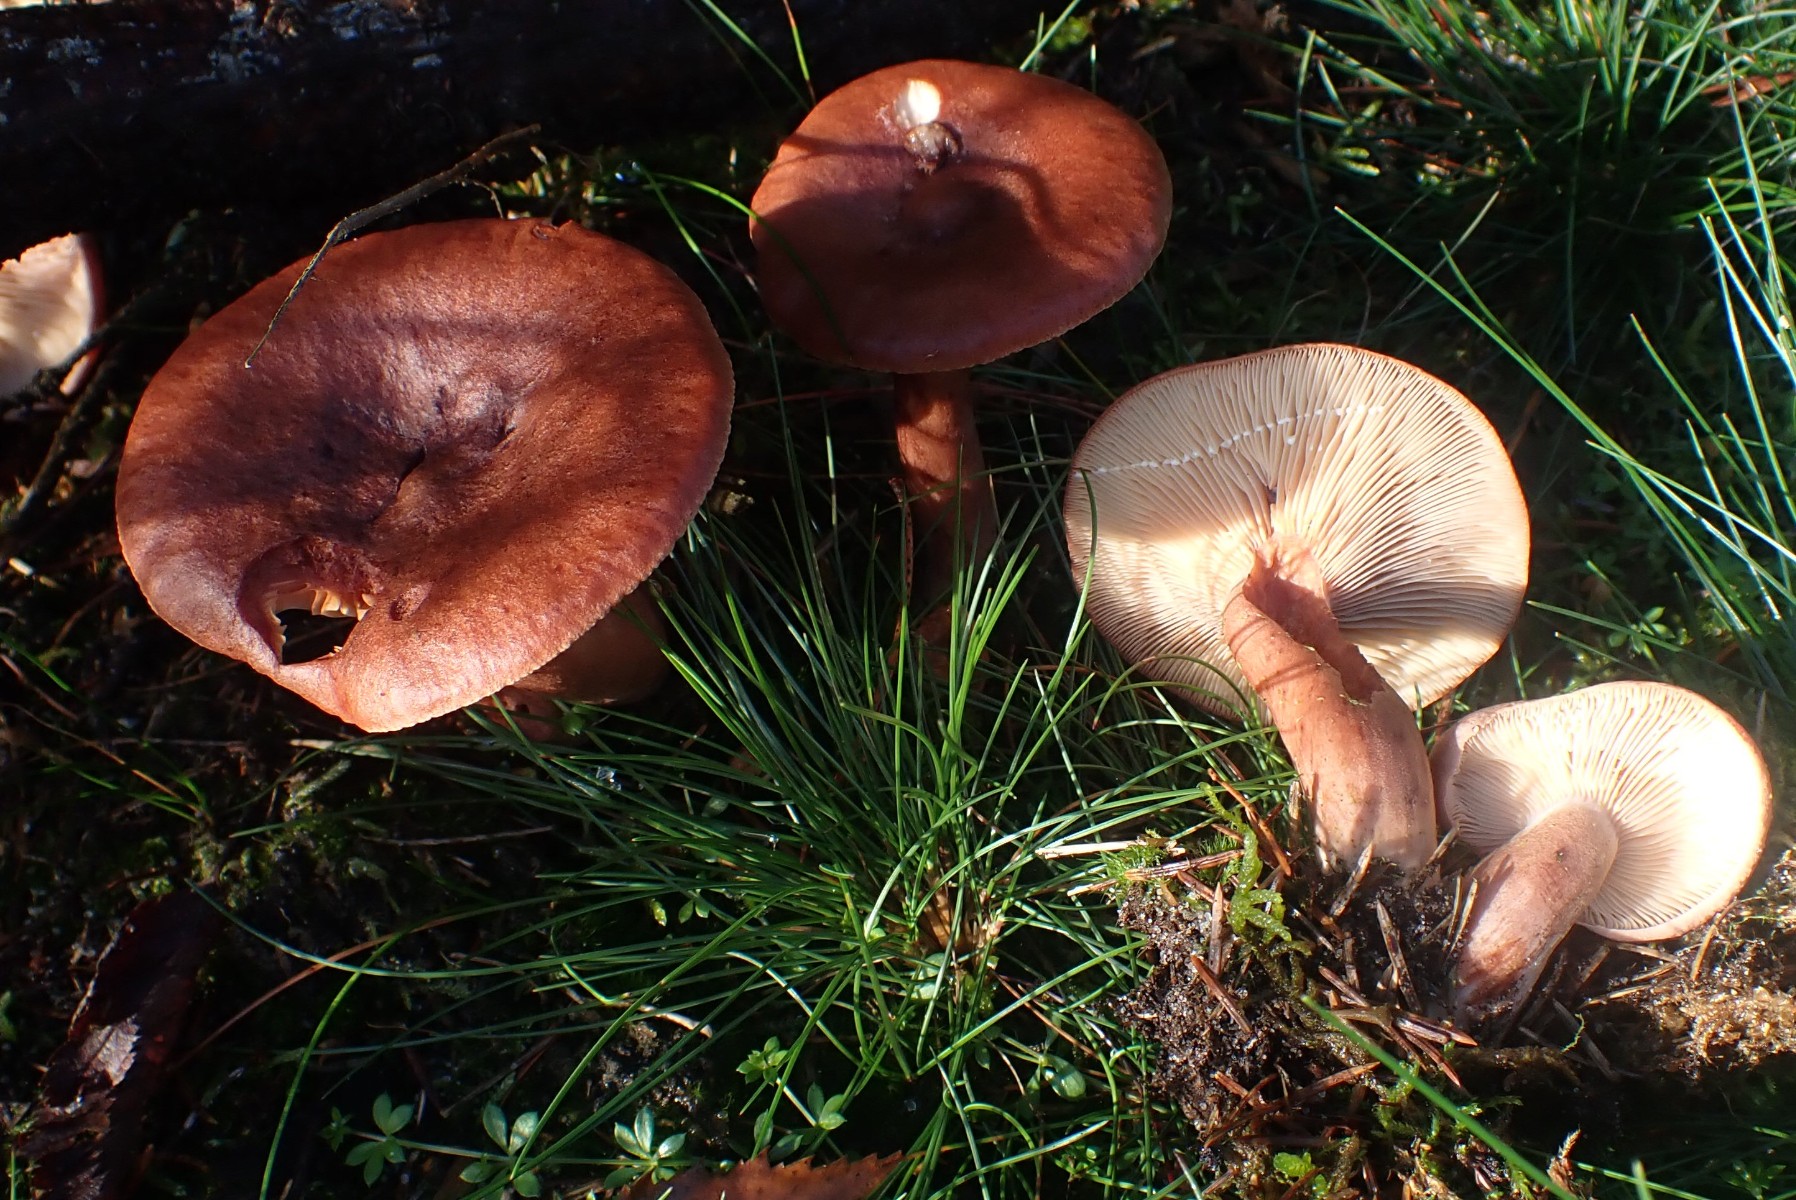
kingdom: Fungi
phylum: Basidiomycota
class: Agaricomycetes
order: Russulales
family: Russulaceae
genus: Lactarius
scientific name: Lactarius rufus
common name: rødbrun mælkehat
